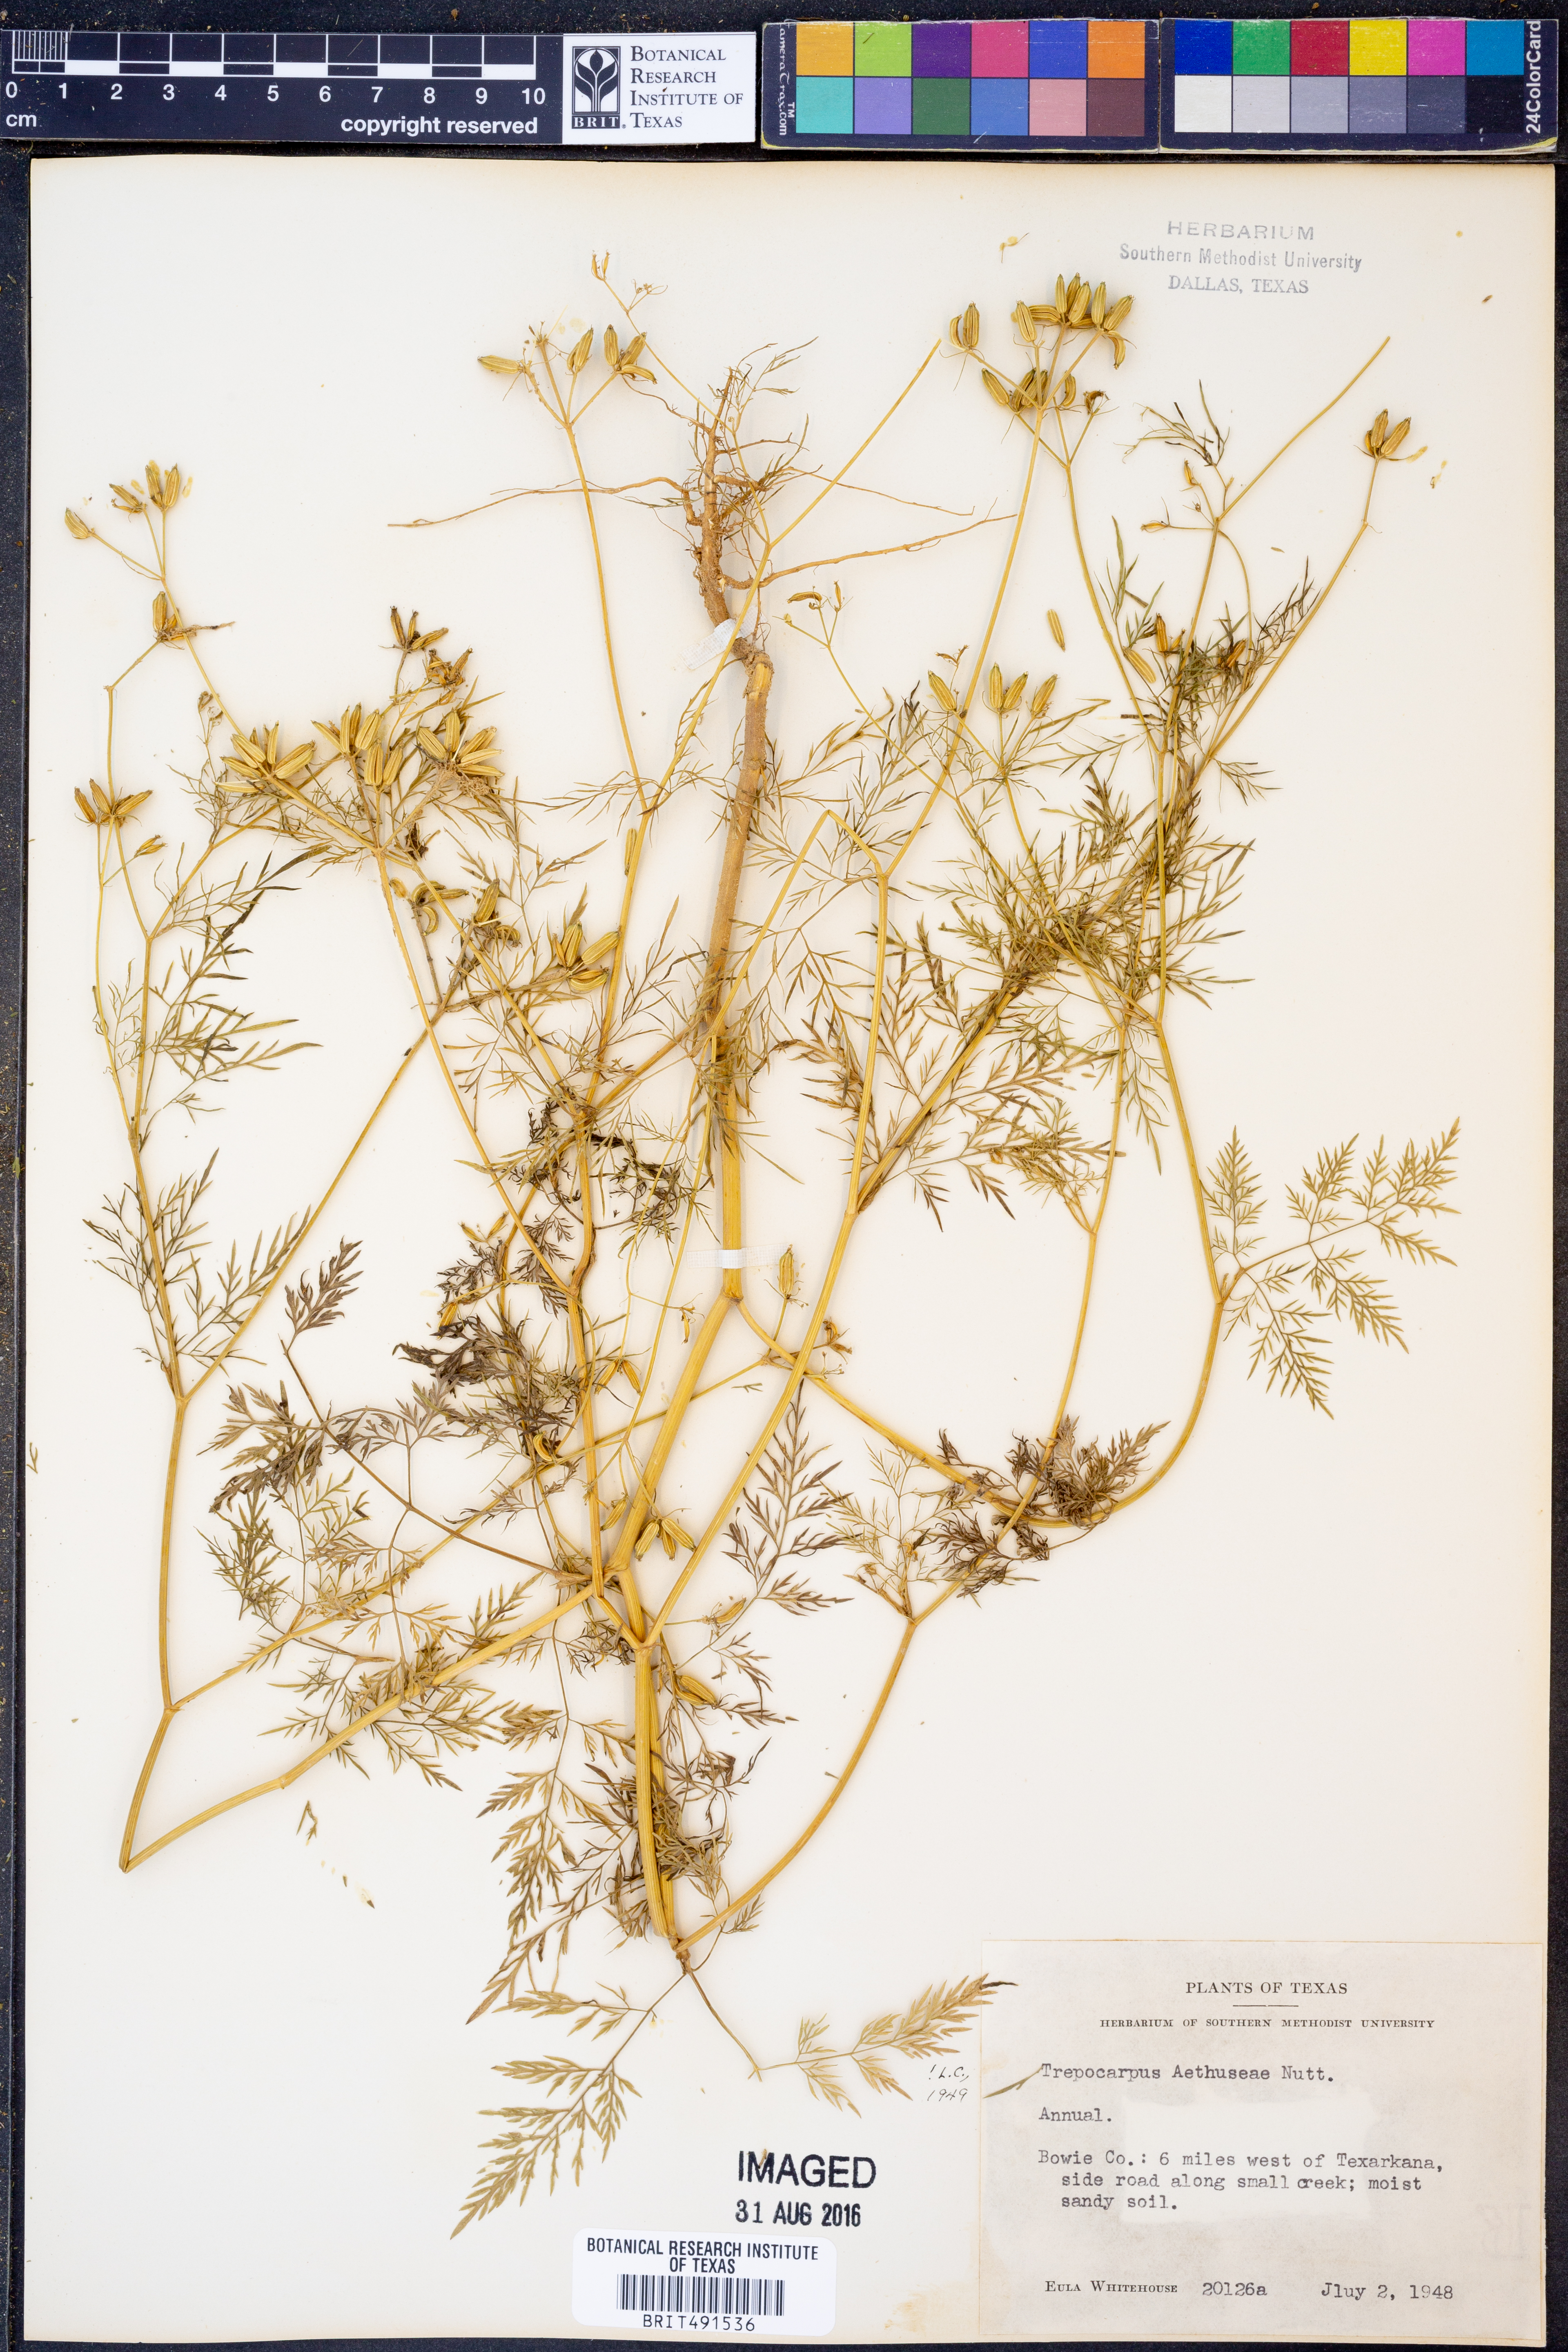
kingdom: Plantae
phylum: Tracheophyta
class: Magnoliopsida
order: Apiales
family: Apiaceae
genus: Trepocarpus
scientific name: Trepocarpus aethusae
